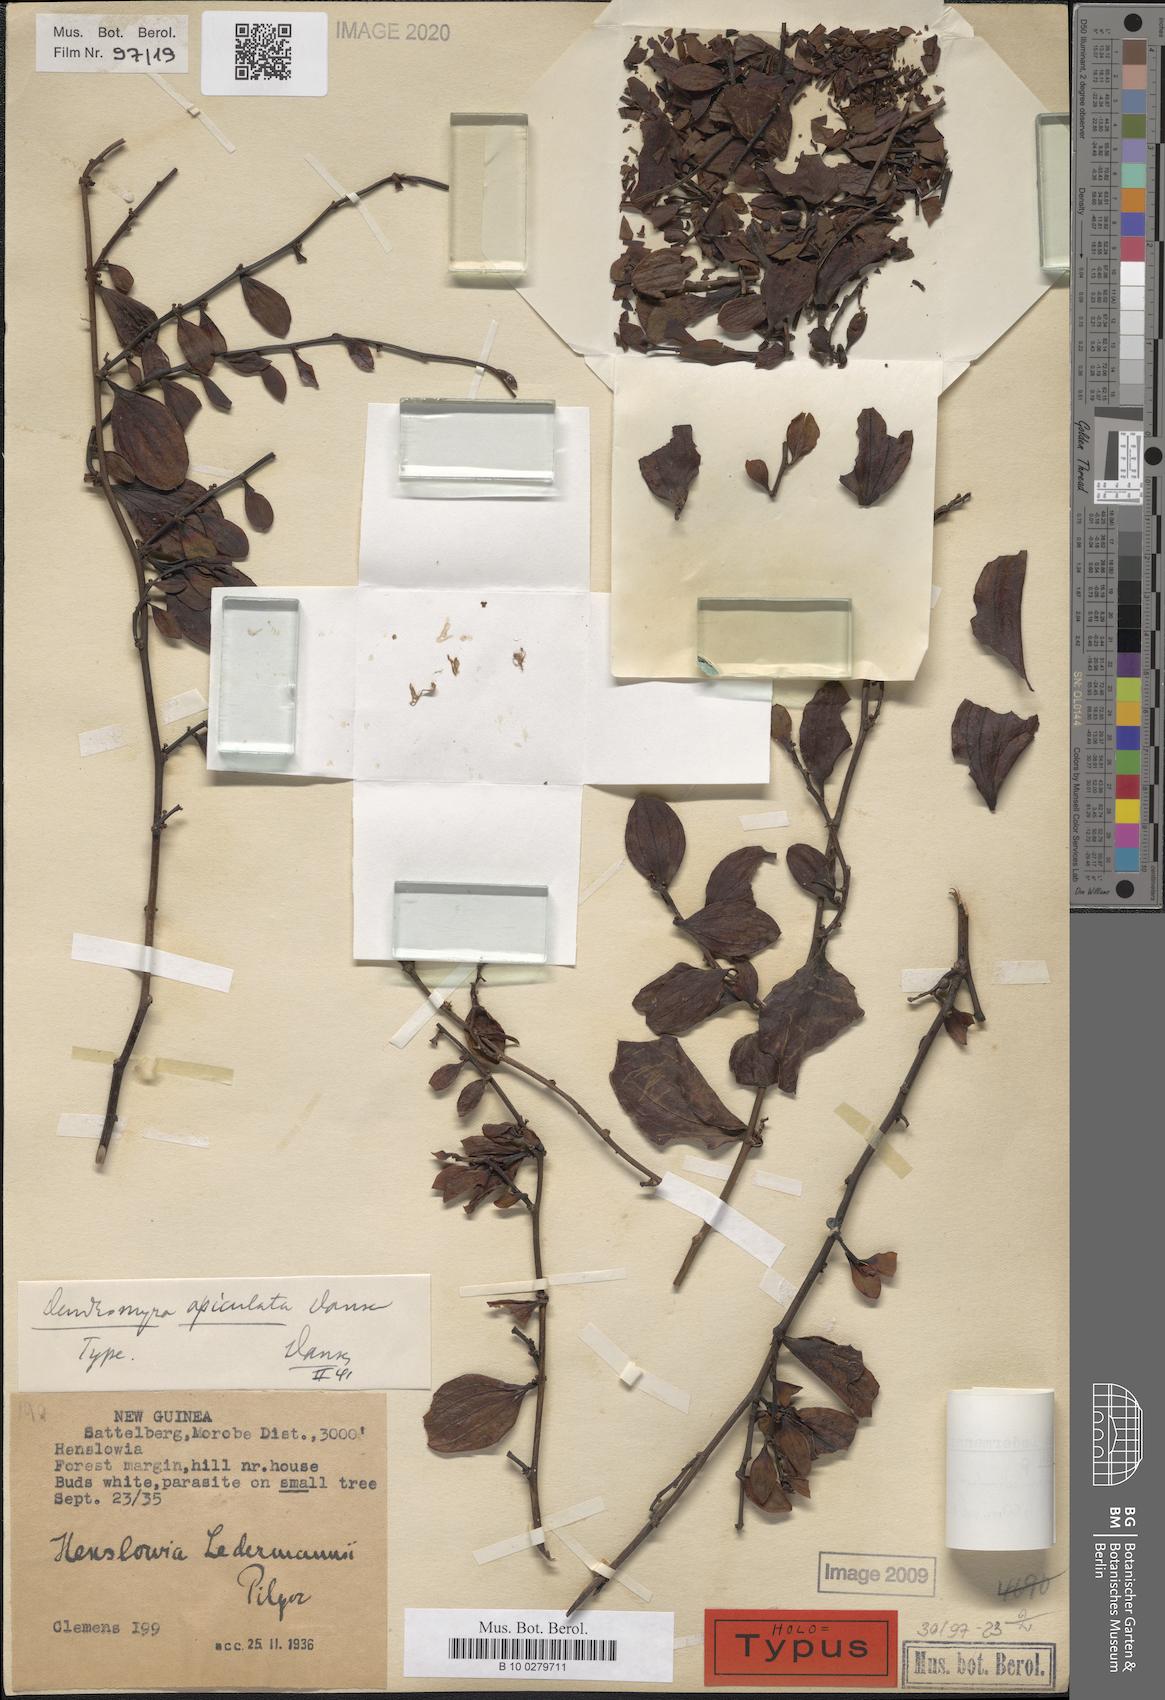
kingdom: Plantae
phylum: Tracheophyta
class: Magnoliopsida
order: Santalales
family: Amphorogynaceae
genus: Dendromyza
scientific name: Dendromyza ledermannii
